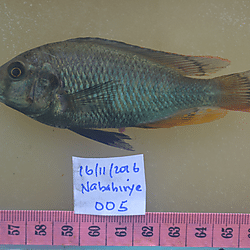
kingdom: Animalia
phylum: Chordata
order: Perciformes
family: Cichlidae
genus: Haplochromis
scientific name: Haplochromis xanthopteryx
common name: Black pseudo-nigricans
